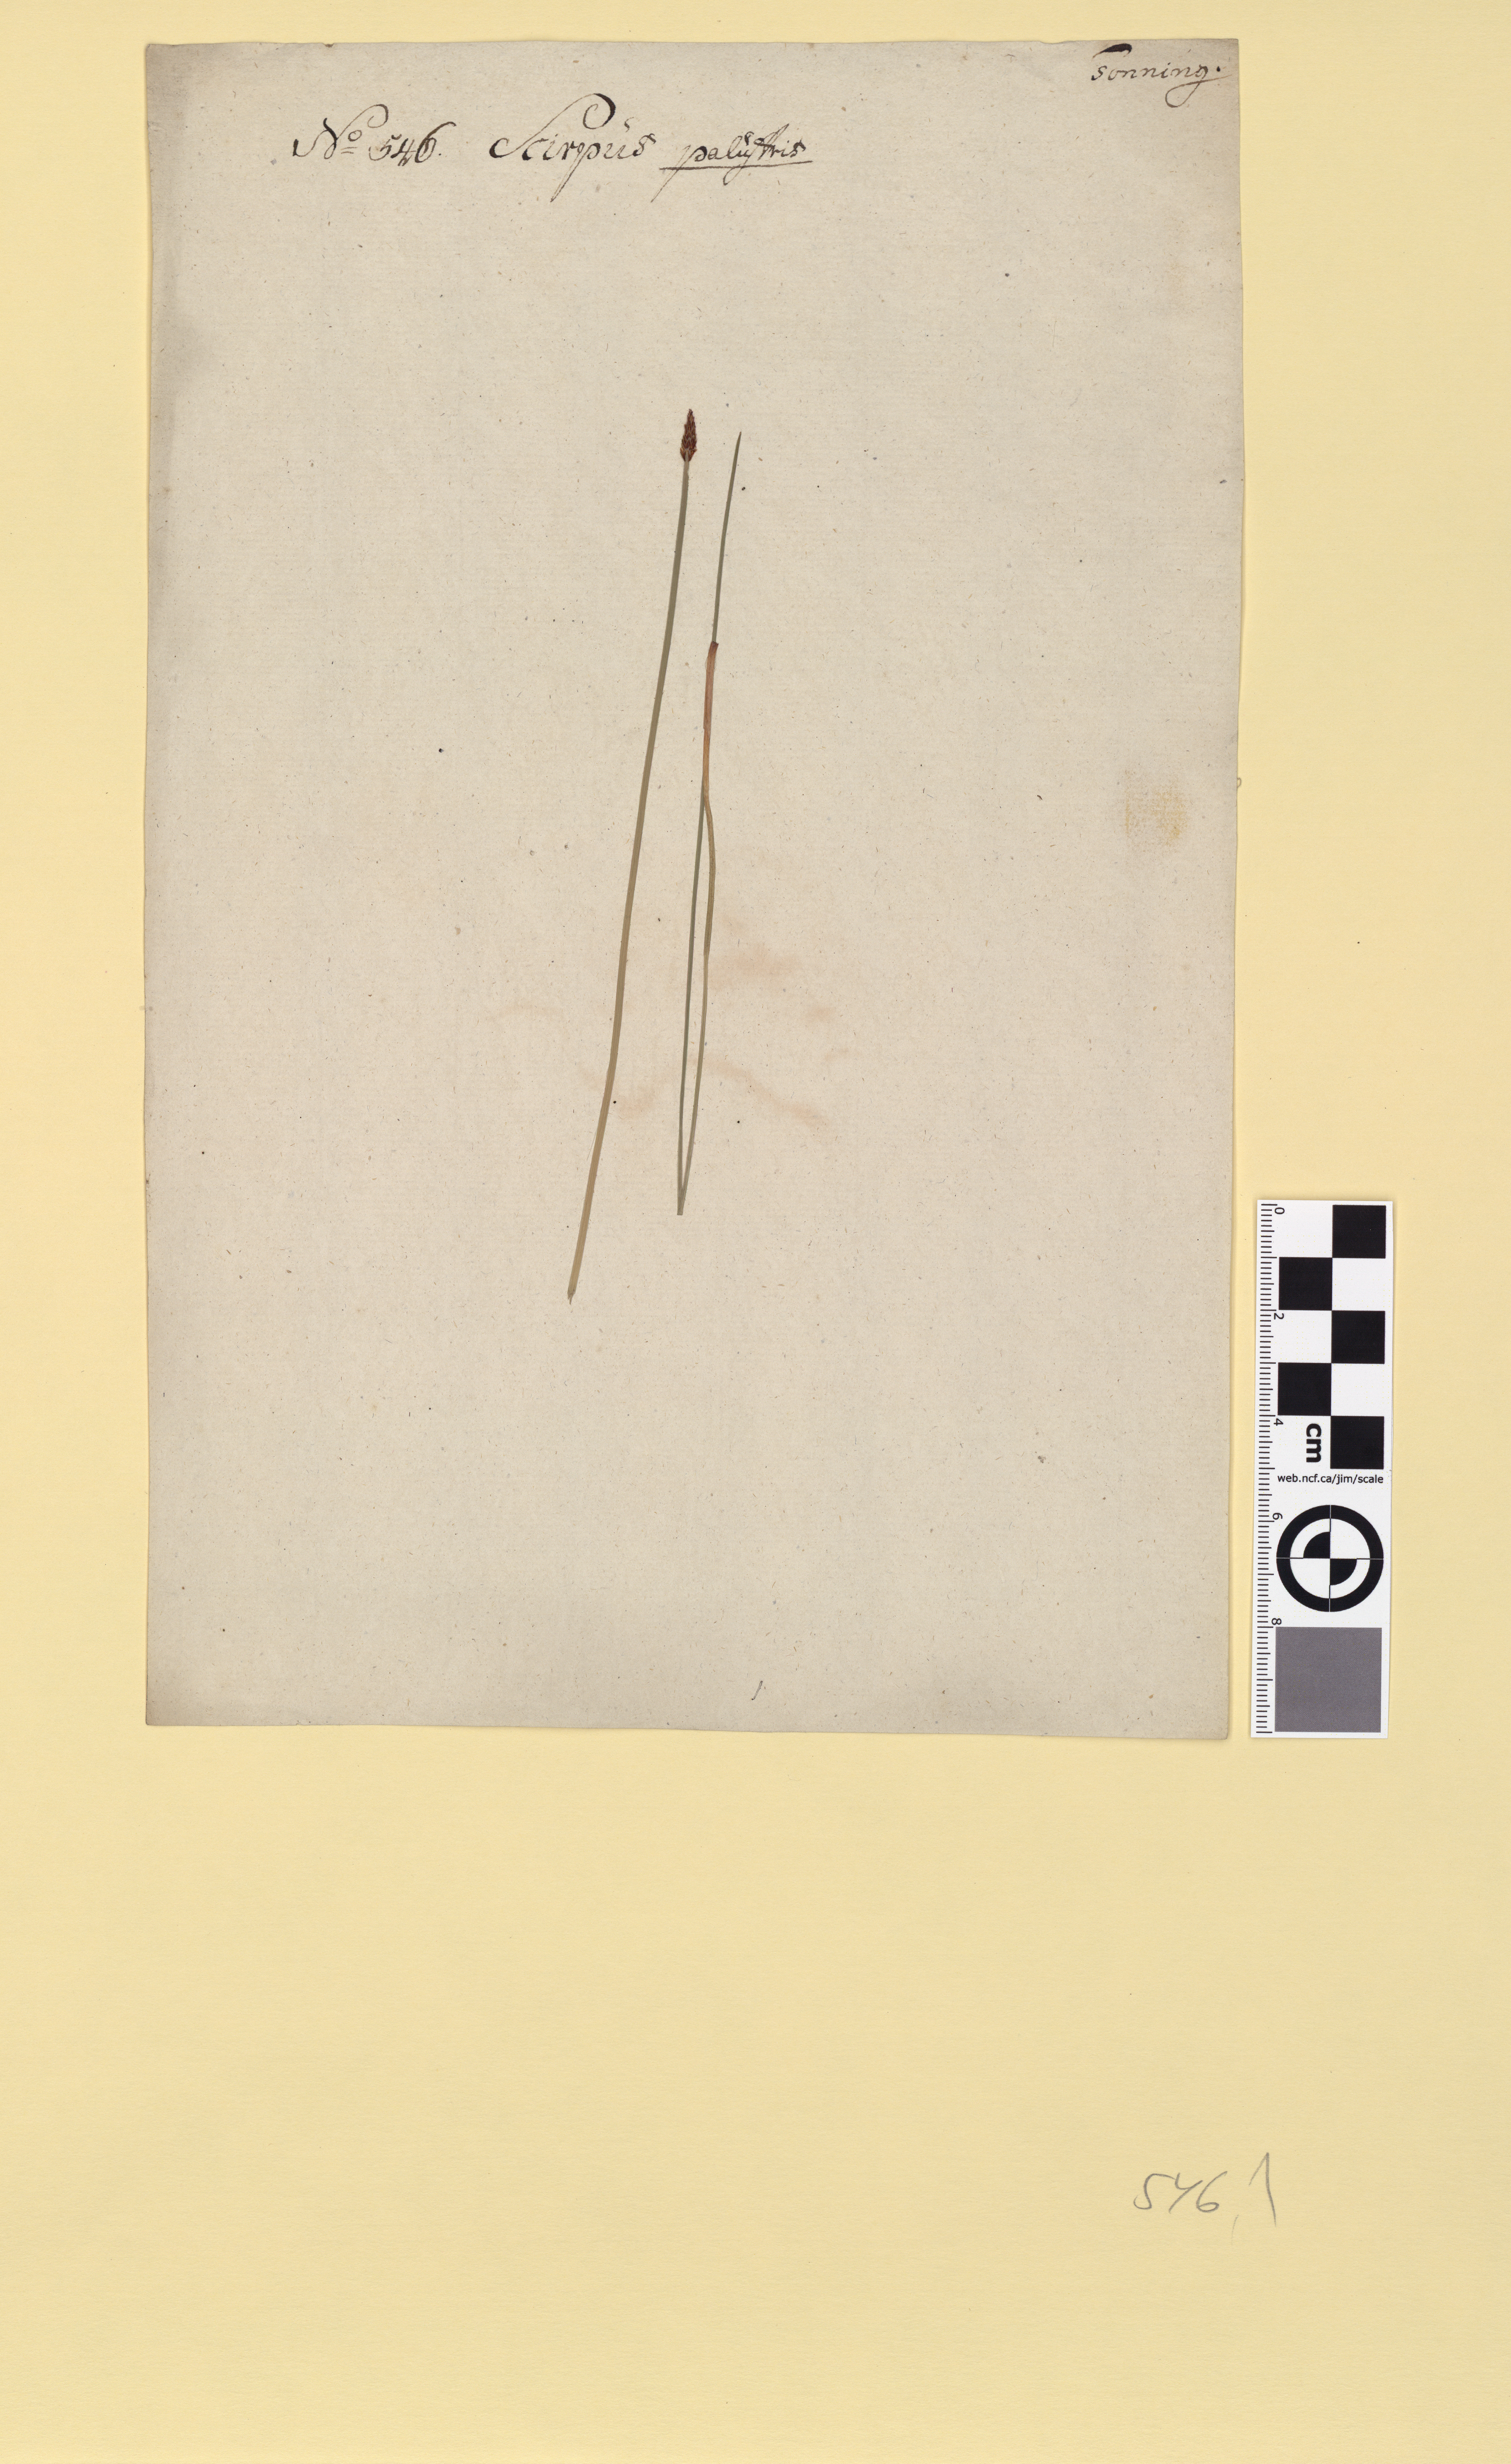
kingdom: Plantae
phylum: Tracheophyta
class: Liliopsida
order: Poales
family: Cyperaceae
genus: Eleocharis
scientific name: Eleocharis palustris
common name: Common spike-rush
